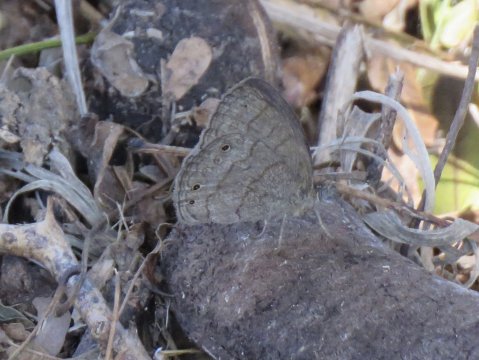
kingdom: Animalia
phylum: Arthropoda
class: Insecta
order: Lepidoptera
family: Nymphalidae
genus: Hermeuptychia
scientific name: Hermeuptychia hermybius
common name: South Texas Satyr
